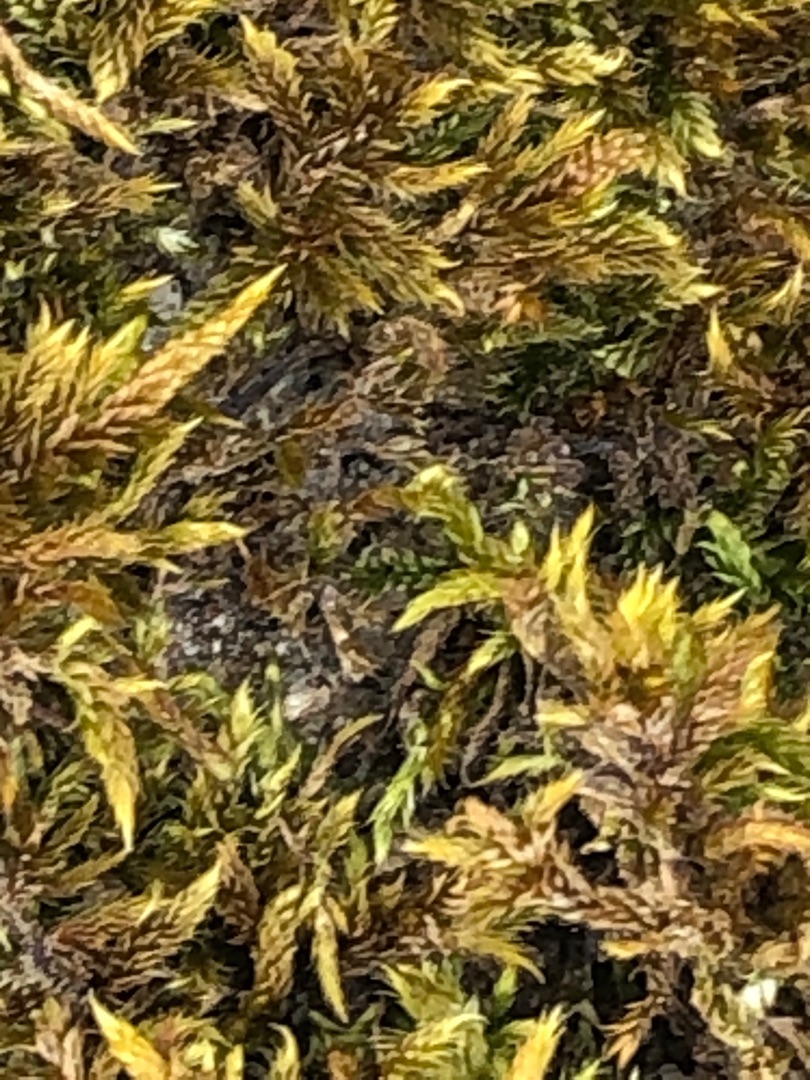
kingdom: Plantae
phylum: Bryophyta
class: Bryopsida
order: Hypnales
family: Hypnaceae
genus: Hypnum
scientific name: Hypnum cupressiforme
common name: Almindelig cypresmos
